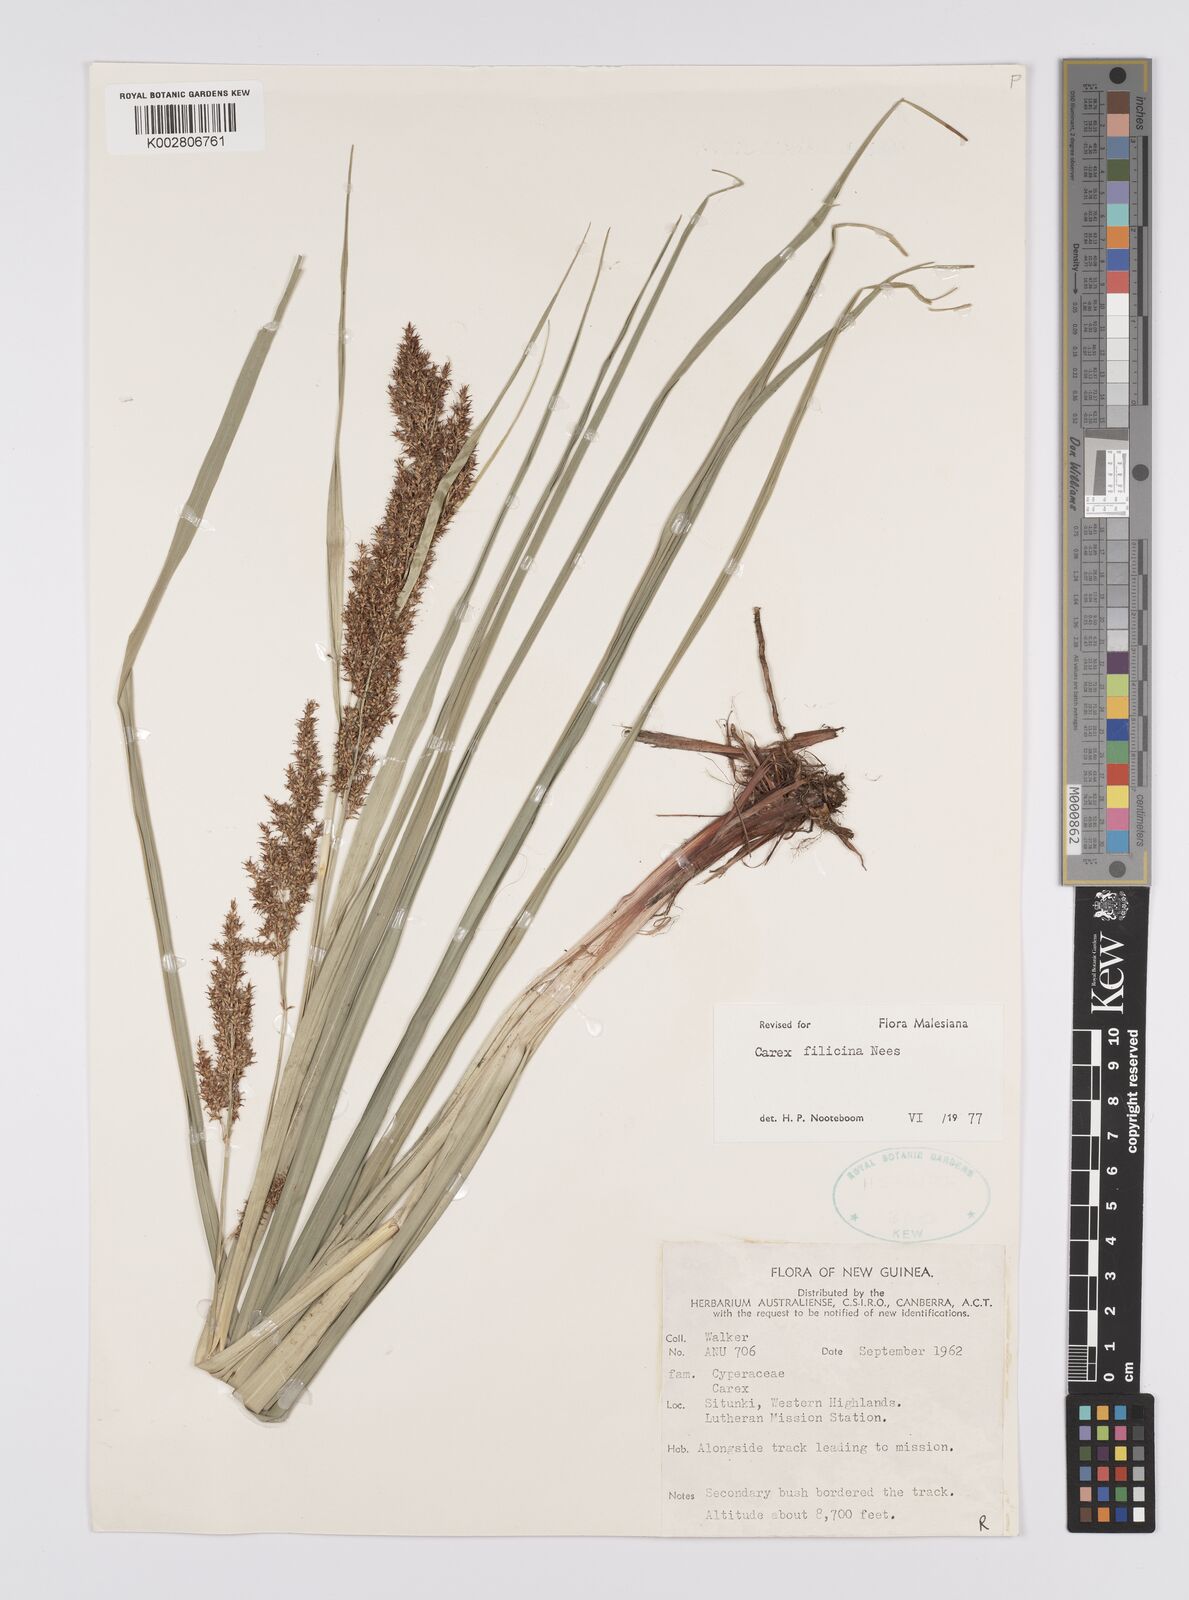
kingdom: Plantae
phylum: Tracheophyta
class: Liliopsida
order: Poales
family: Cyperaceae
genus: Carex
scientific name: Carex filicina
